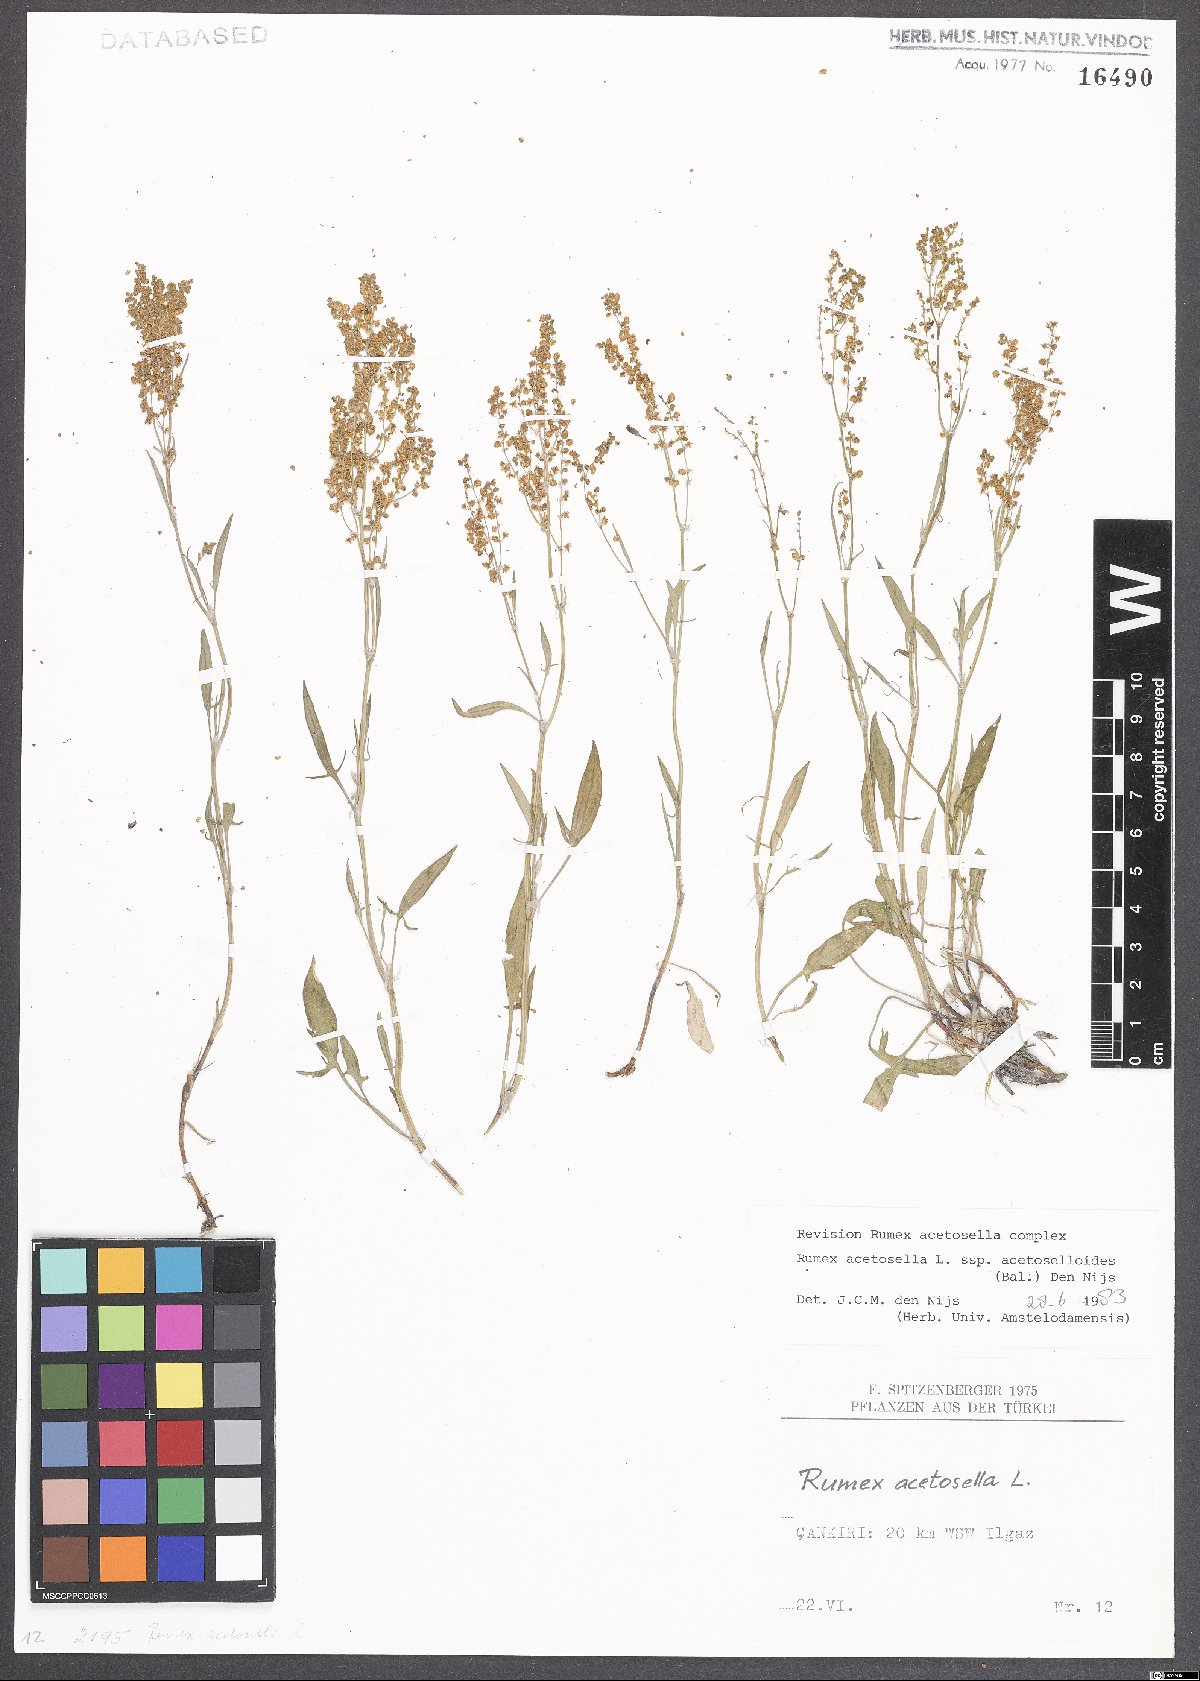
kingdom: Plantae
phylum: Tracheophyta
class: Magnoliopsida
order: Caryophyllales
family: Polygonaceae
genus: Rumex
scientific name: Rumex acetosella
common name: Common sheep sorrel
